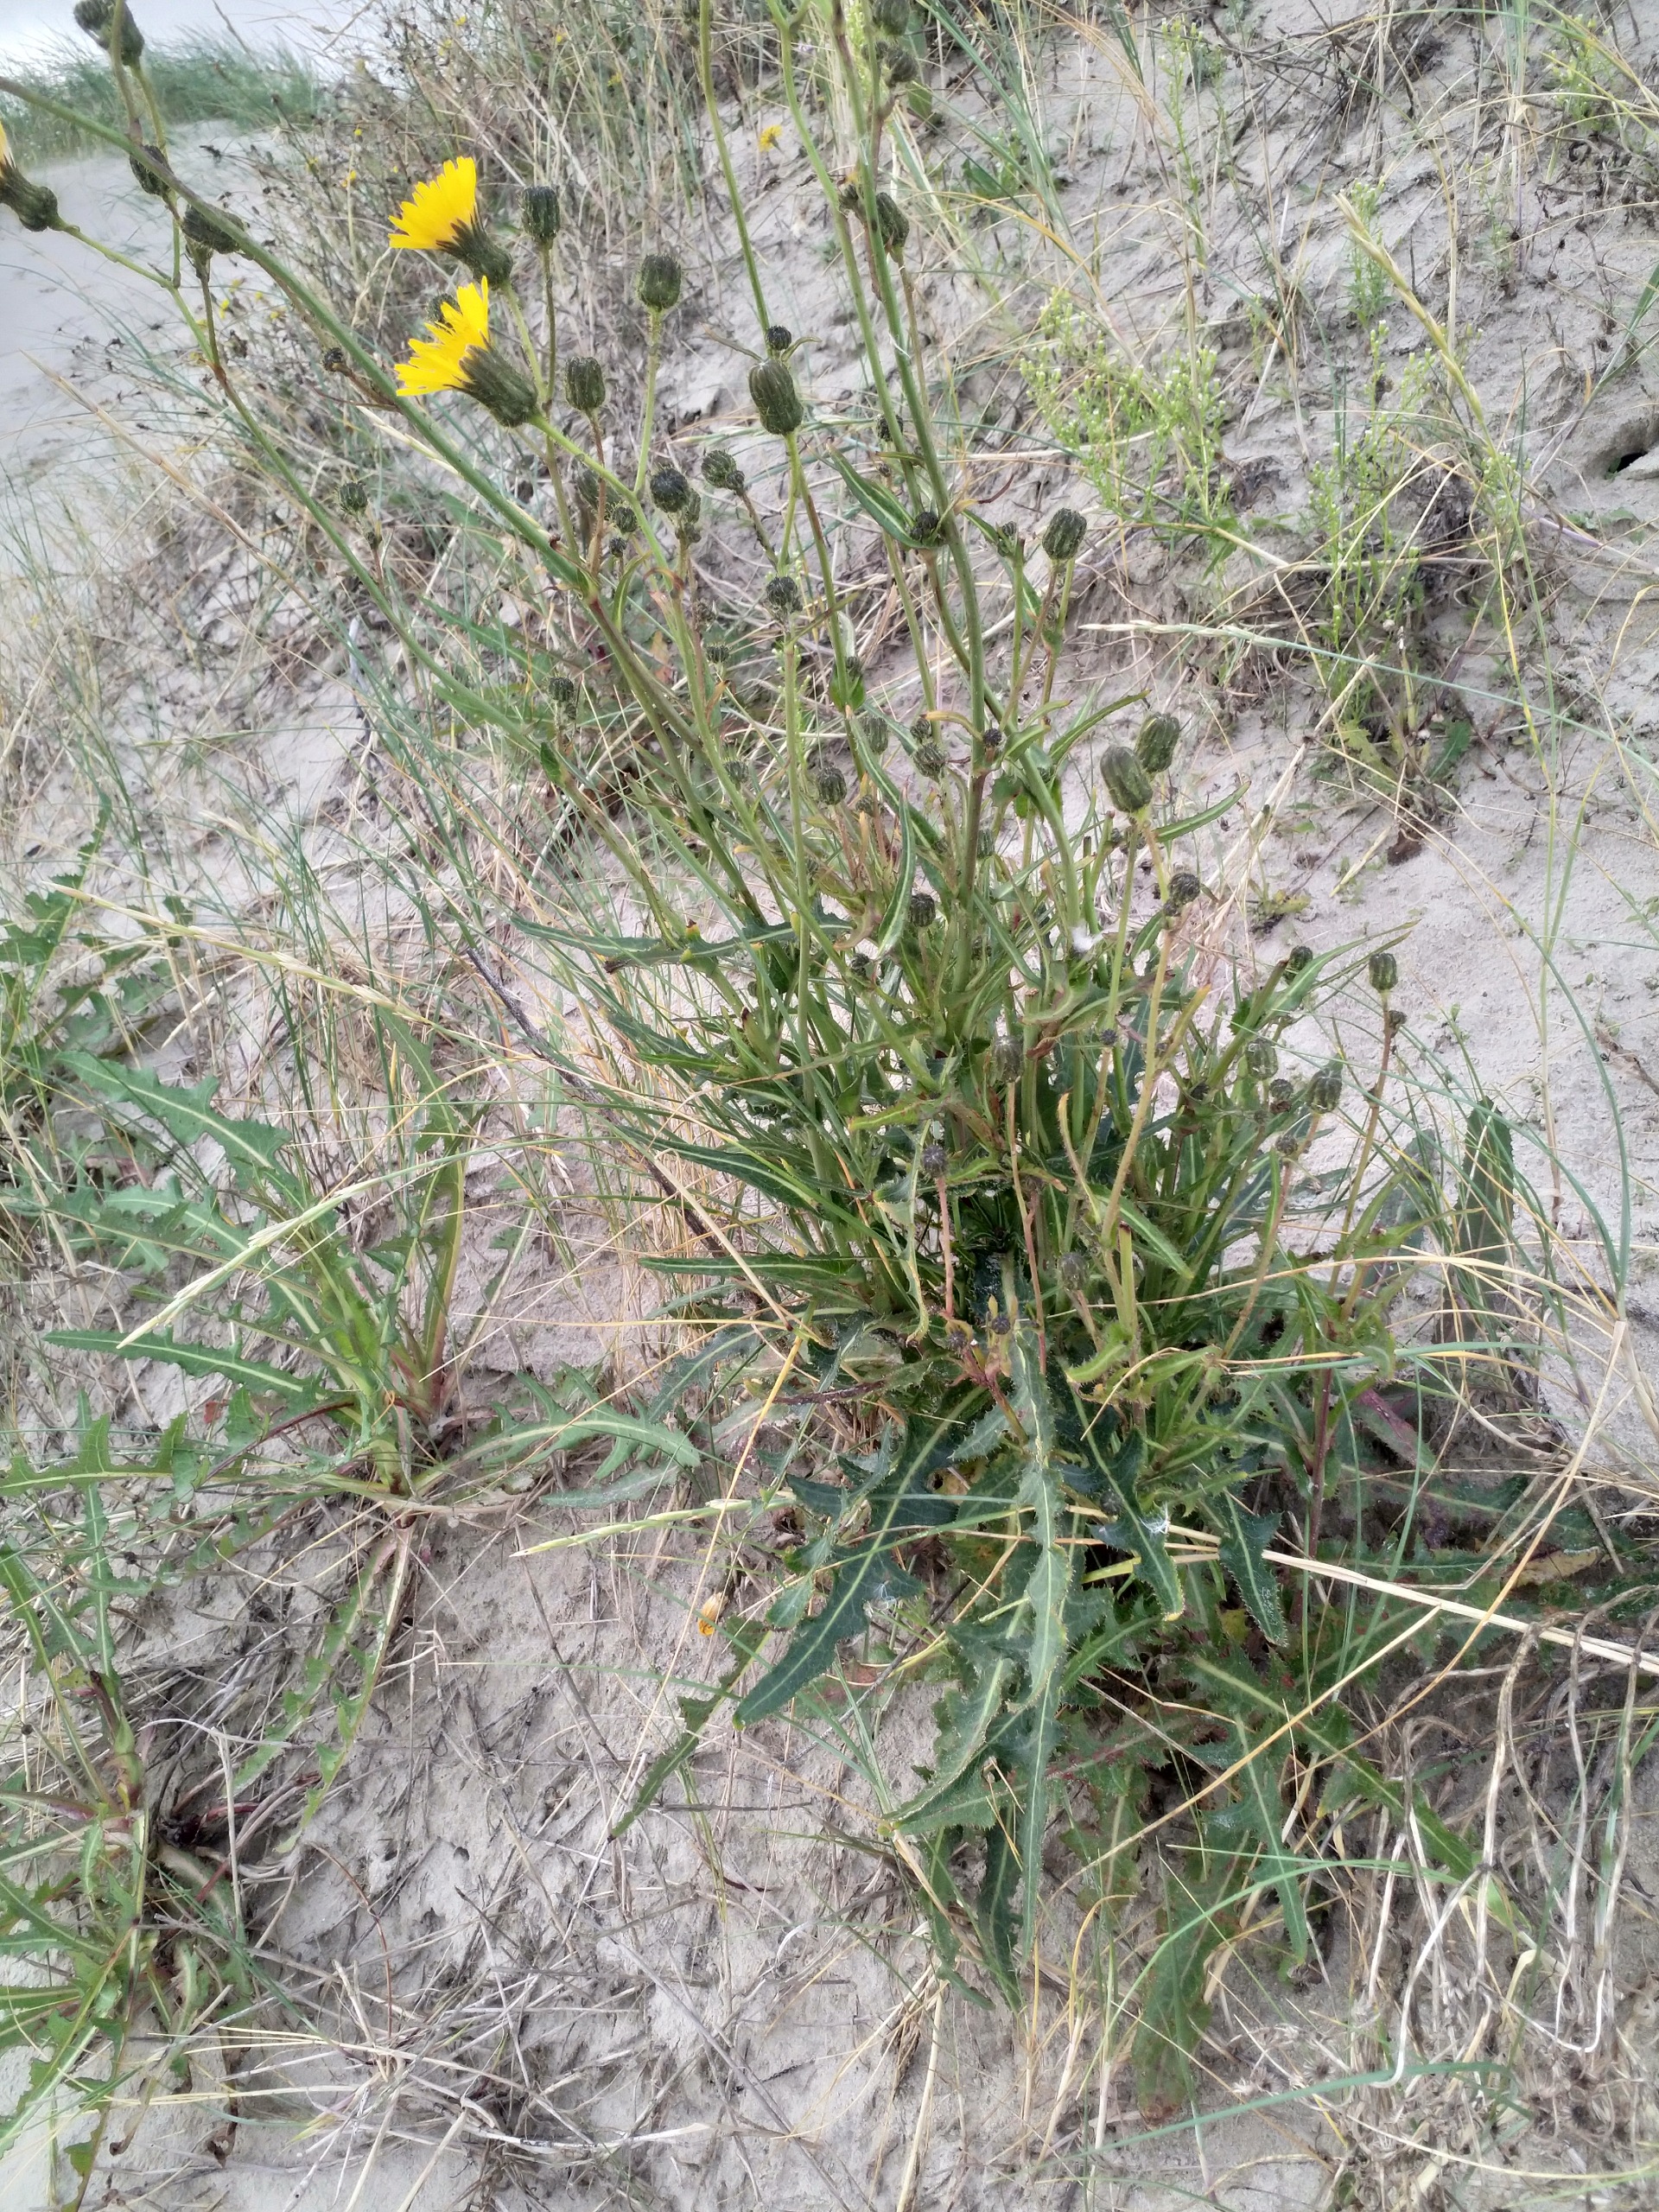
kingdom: Plantae
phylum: Tracheophyta
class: Magnoliopsida
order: Asterales
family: Asteraceae
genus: Sonchus
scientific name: Sonchus arvensis
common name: Ager-svinemælk
